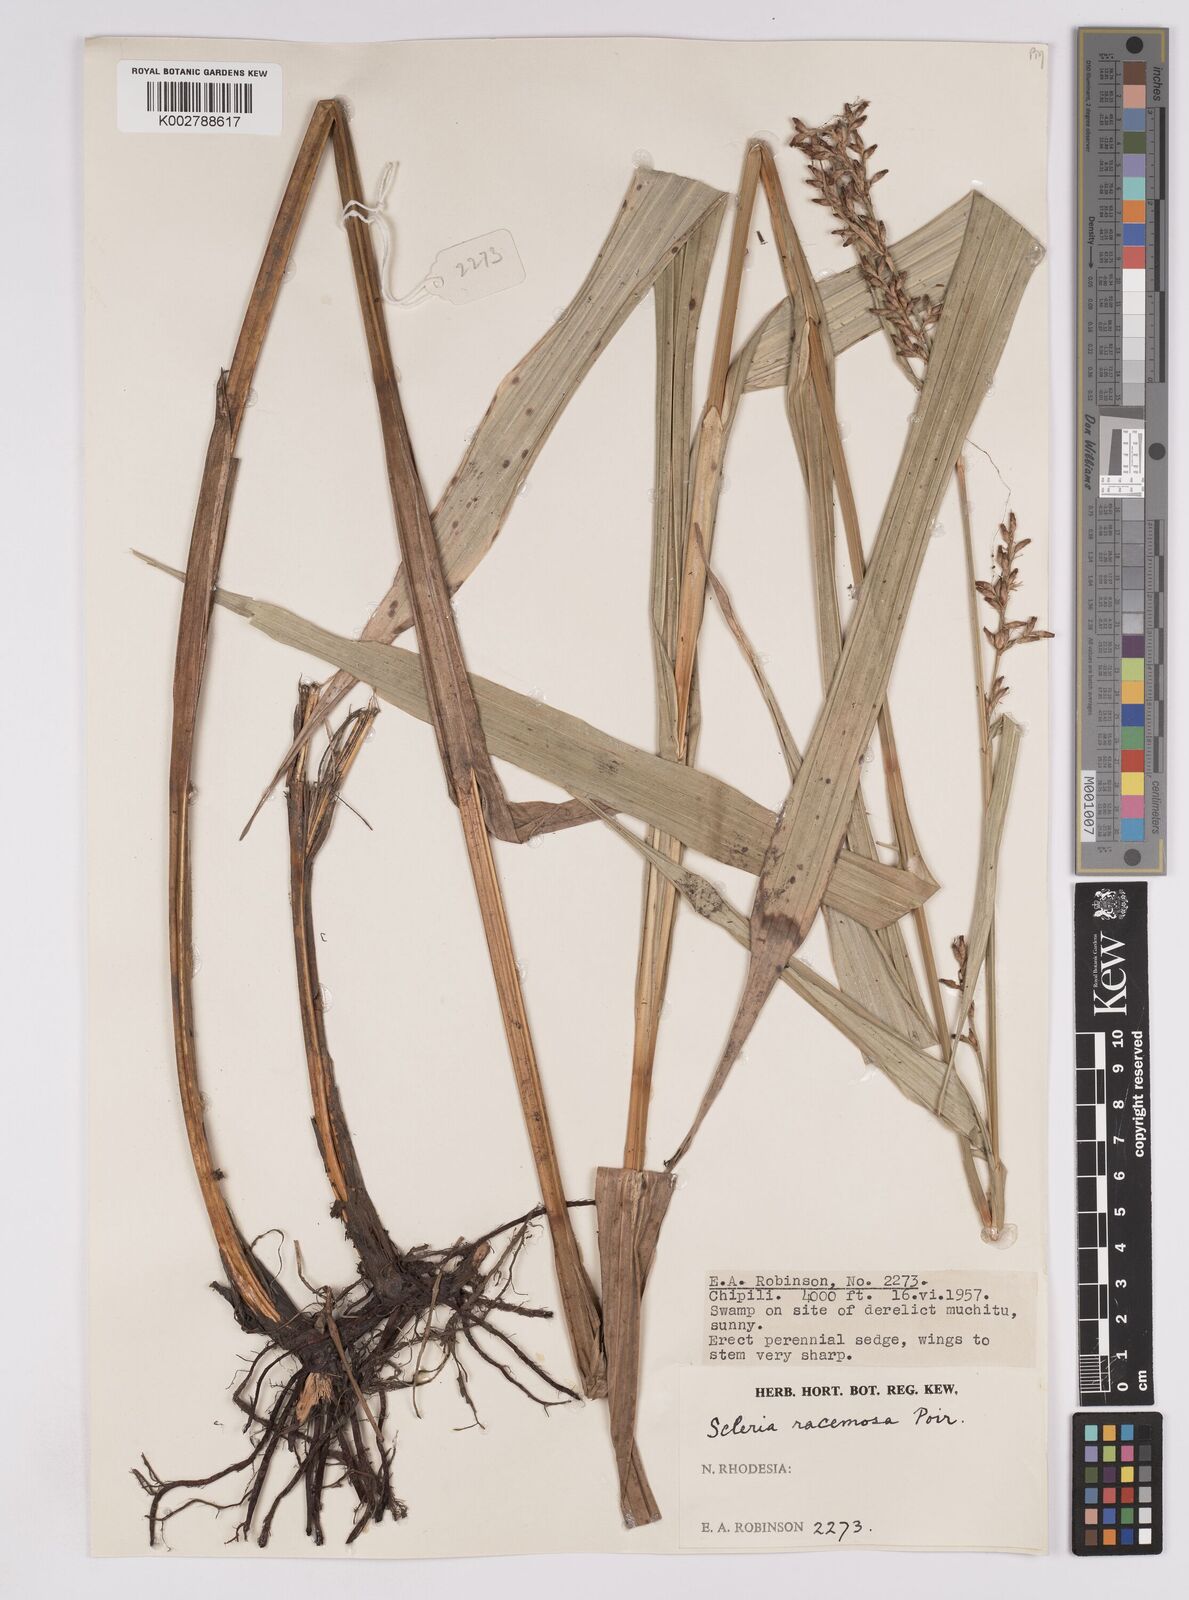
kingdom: Plantae
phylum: Tracheophyta
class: Liliopsida
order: Poales
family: Cyperaceae
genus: Scleria
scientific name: Scleria racemosa
